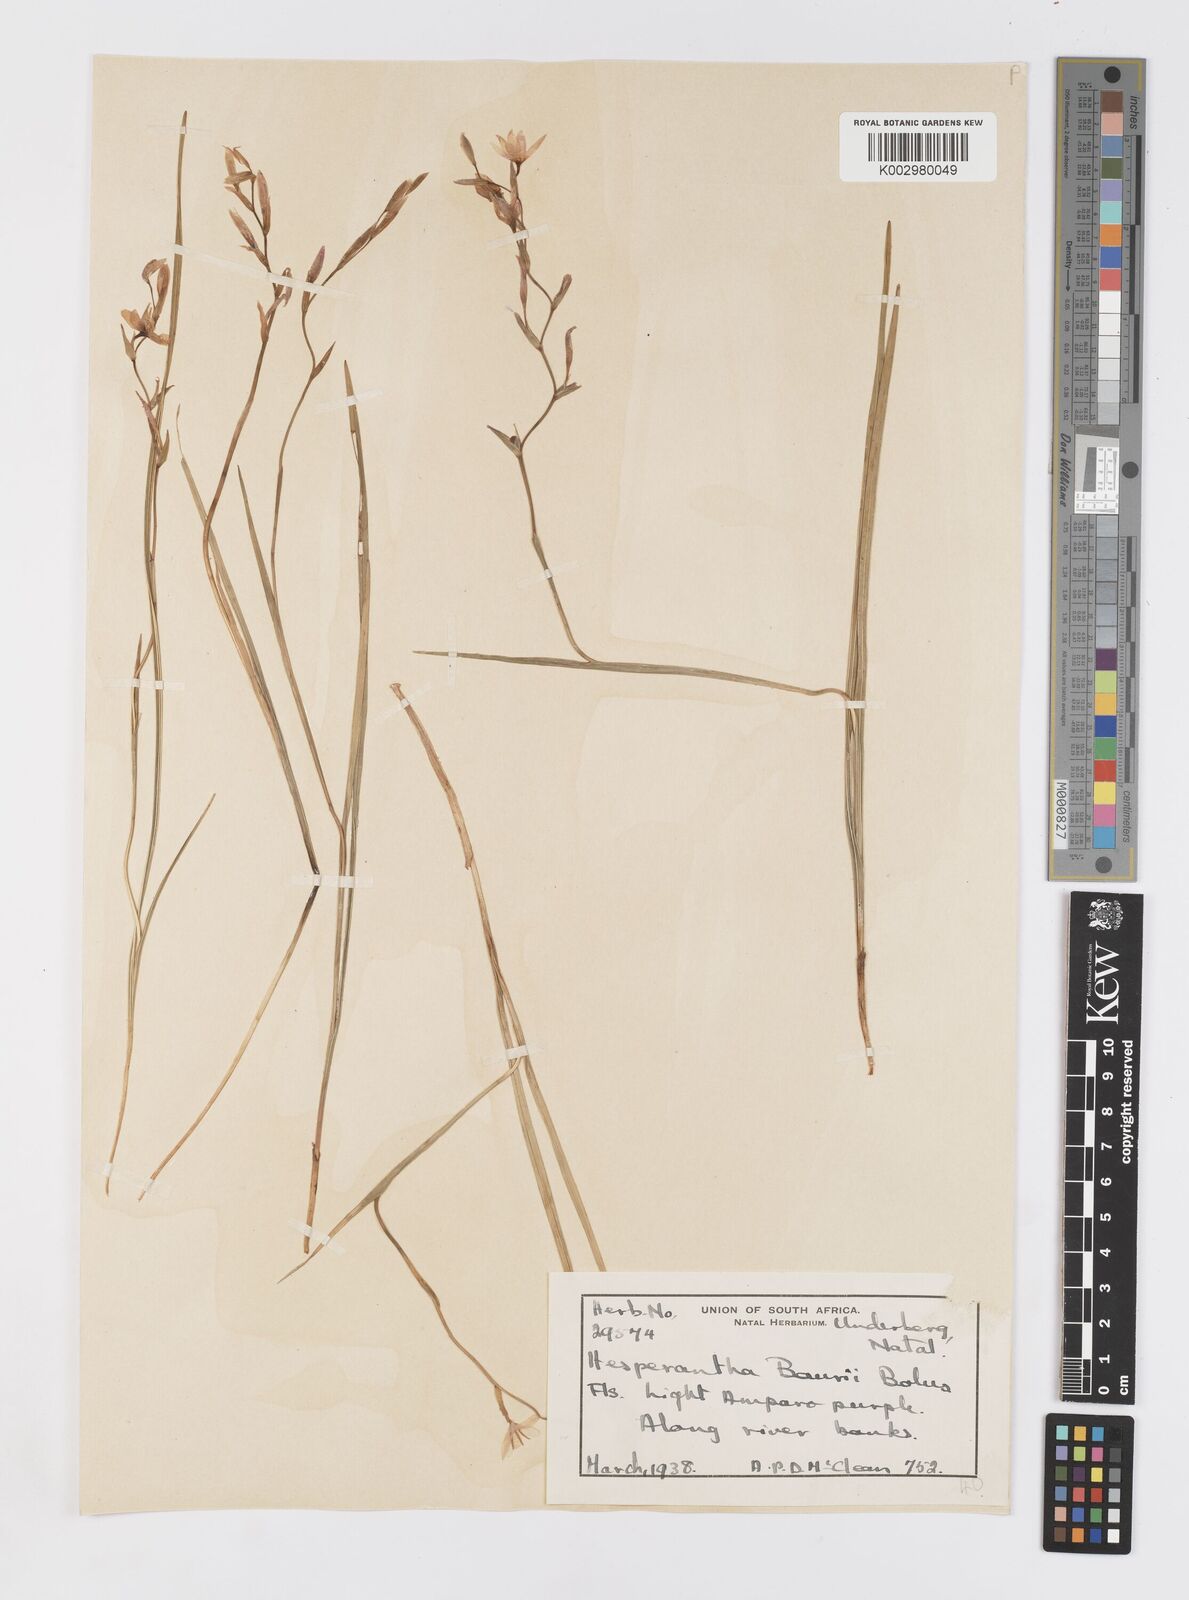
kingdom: Plantae
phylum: Tracheophyta
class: Liliopsida
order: Asparagales
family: Iridaceae
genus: Hesperantha
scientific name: Hesperantha baurii
